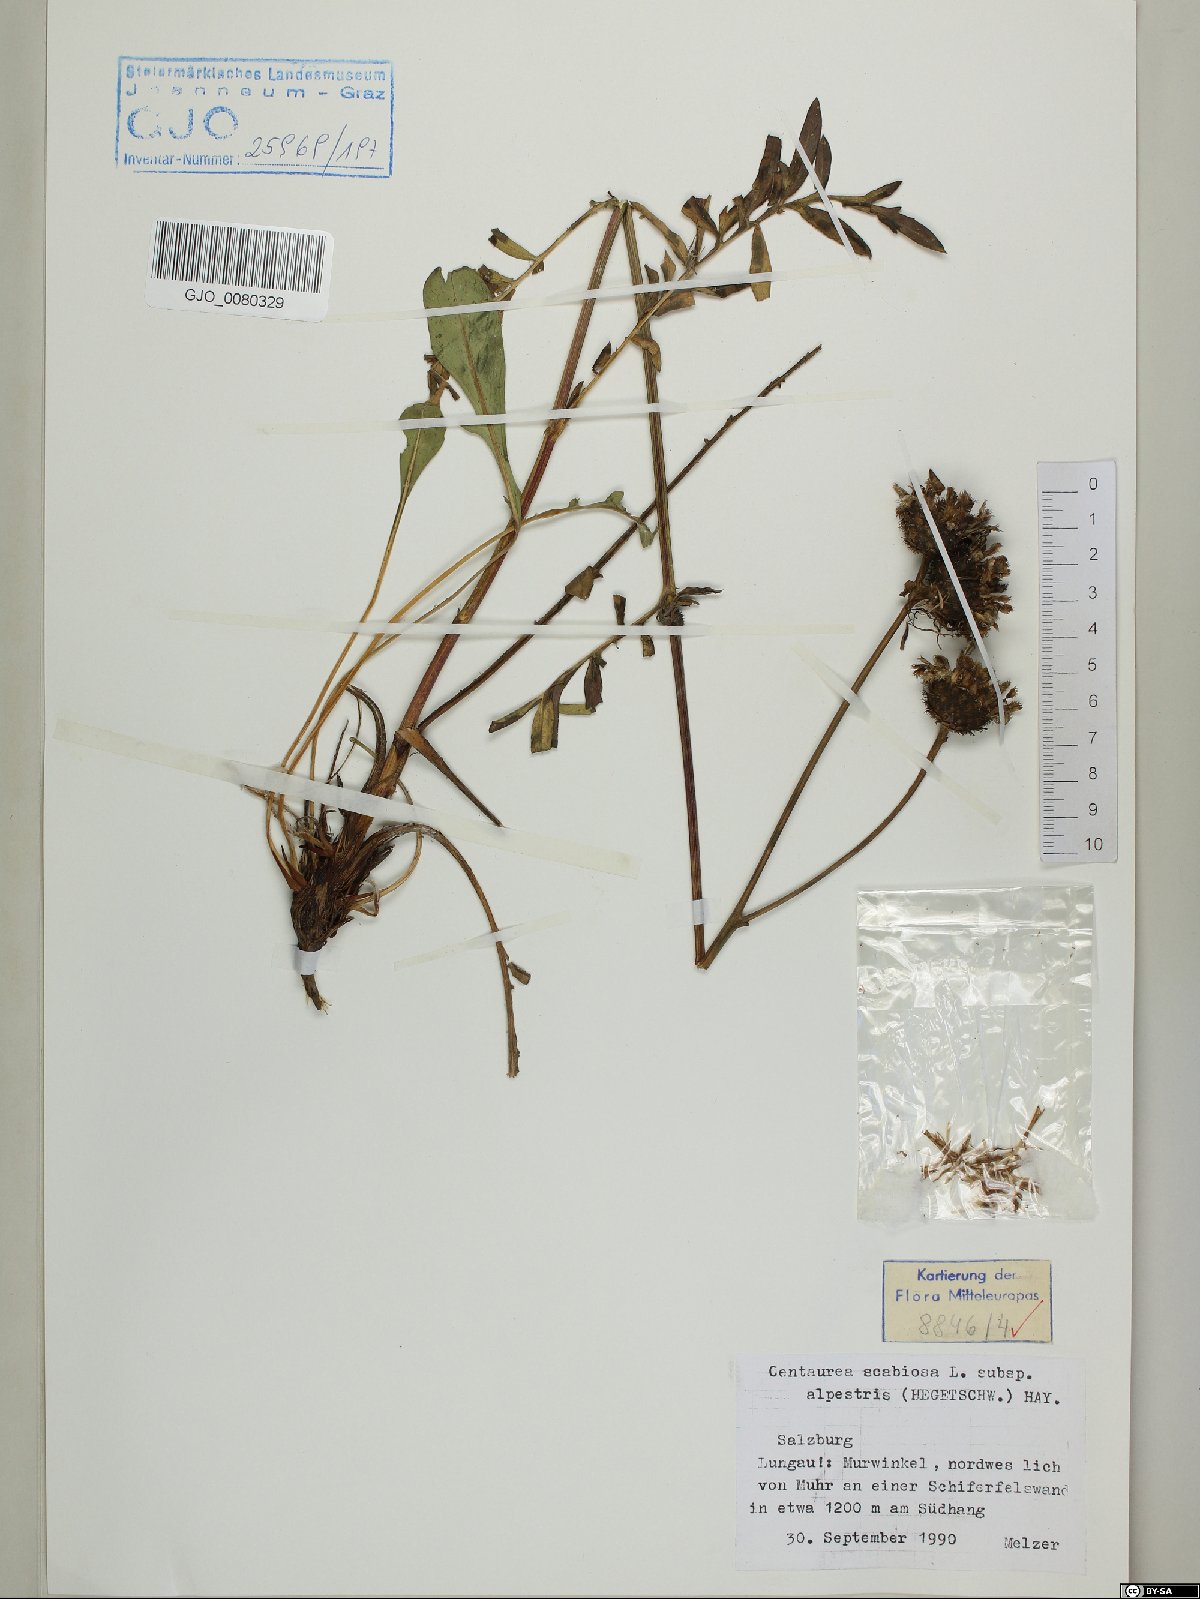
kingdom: Plantae
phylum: Tracheophyta
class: Magnoliopsida
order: Asterales
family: Asteraceae
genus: Centaurea
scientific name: Centaurea scabiosa
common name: Greater knapweed
